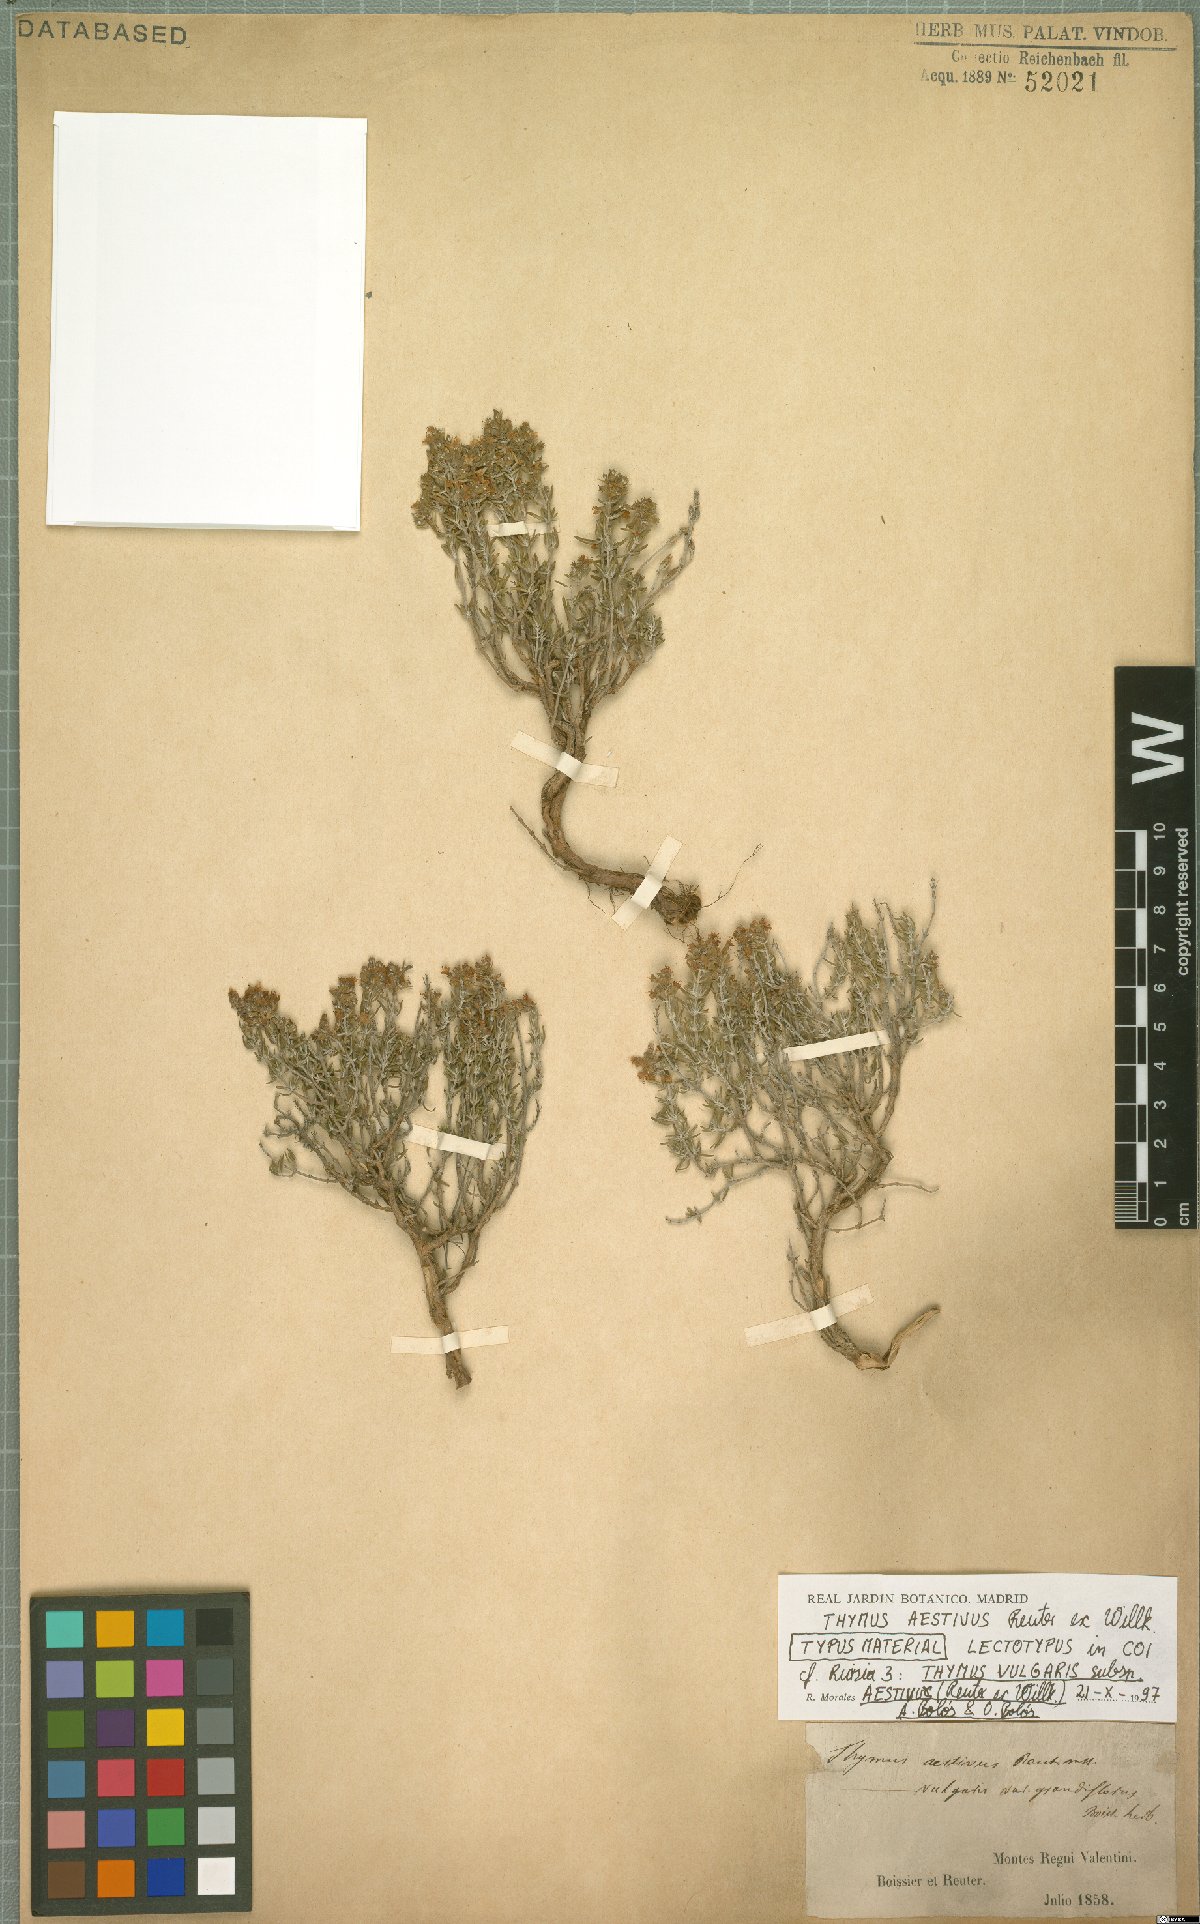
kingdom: Plantae
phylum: Tracheophyta
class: Magnoliopsida
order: Lamiales
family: Lamiaceae
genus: Thymus
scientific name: Thymus vulgaris
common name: Garden thyme
